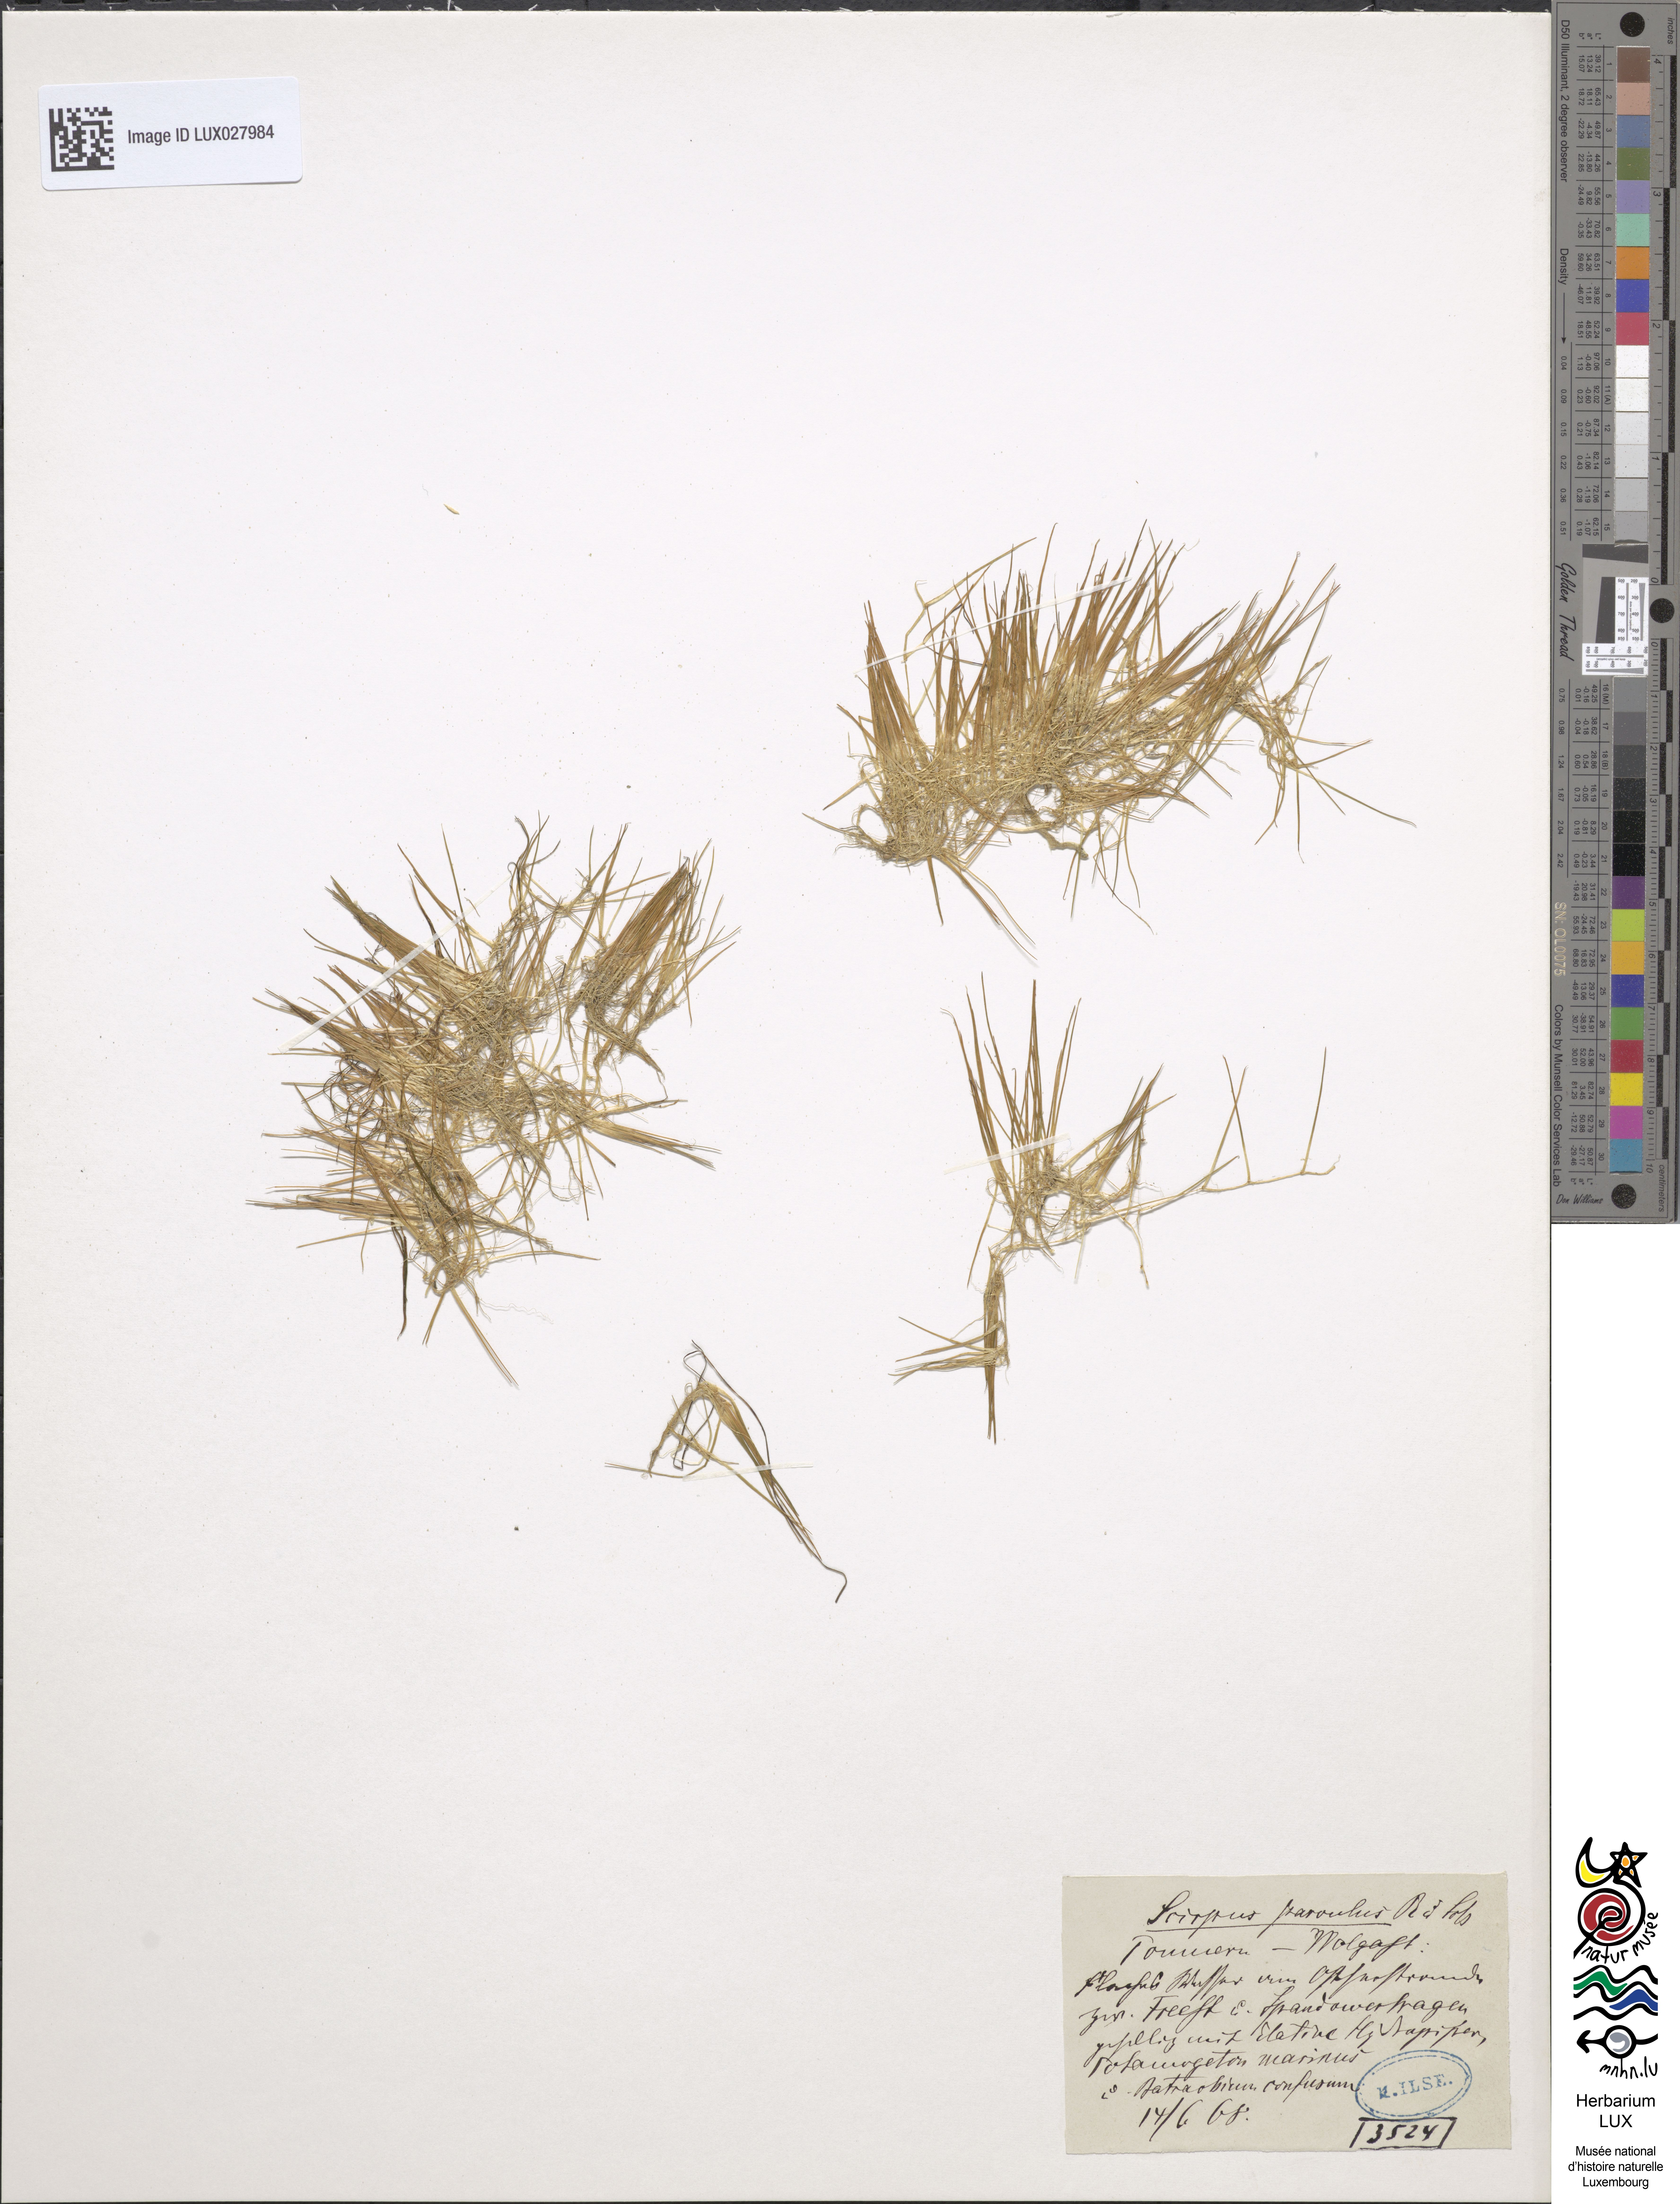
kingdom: Plantae
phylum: Tracheophyta
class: Liliopsida
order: Poales
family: Cyperaceae
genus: Eleocharis
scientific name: Eleocharis parvula
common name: Dwarf spike-rush
